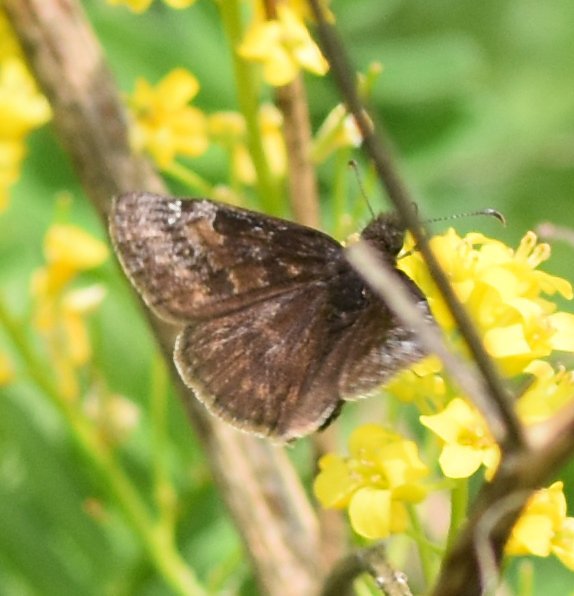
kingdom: Animalia
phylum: Arthropoda
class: Insecta
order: Lepidoptera
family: Hesperiidae
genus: Gesta
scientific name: Gesta
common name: Juvenal's Duskywing
